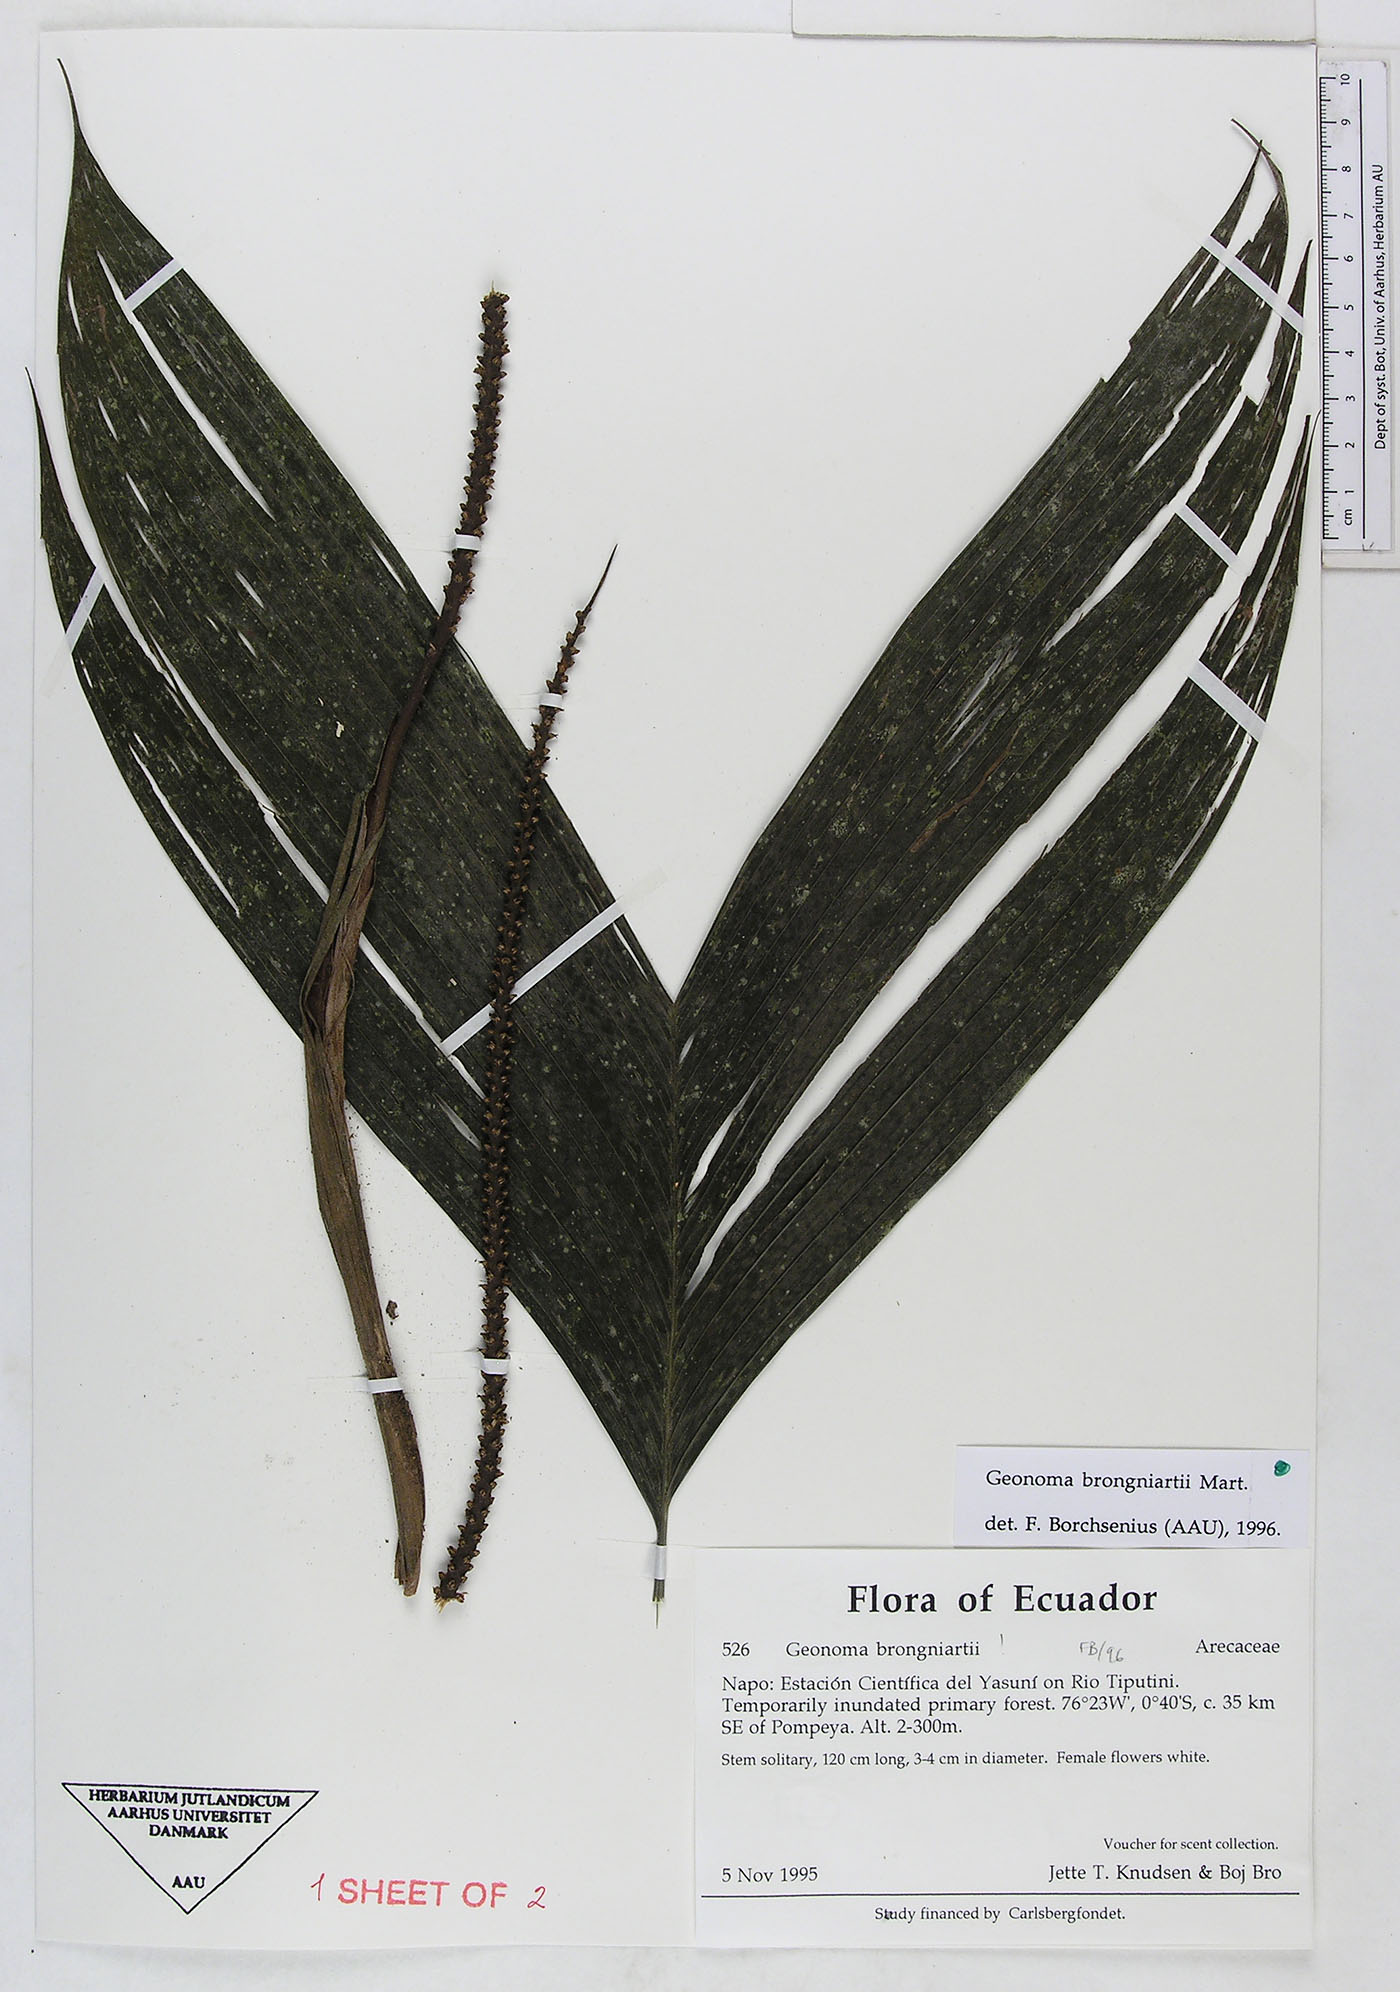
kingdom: Plantae
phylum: Tracheophyta
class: Liliopsida
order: Arecales
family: Arecaceae
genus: Geonoma
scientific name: Geonoma brongniartii
